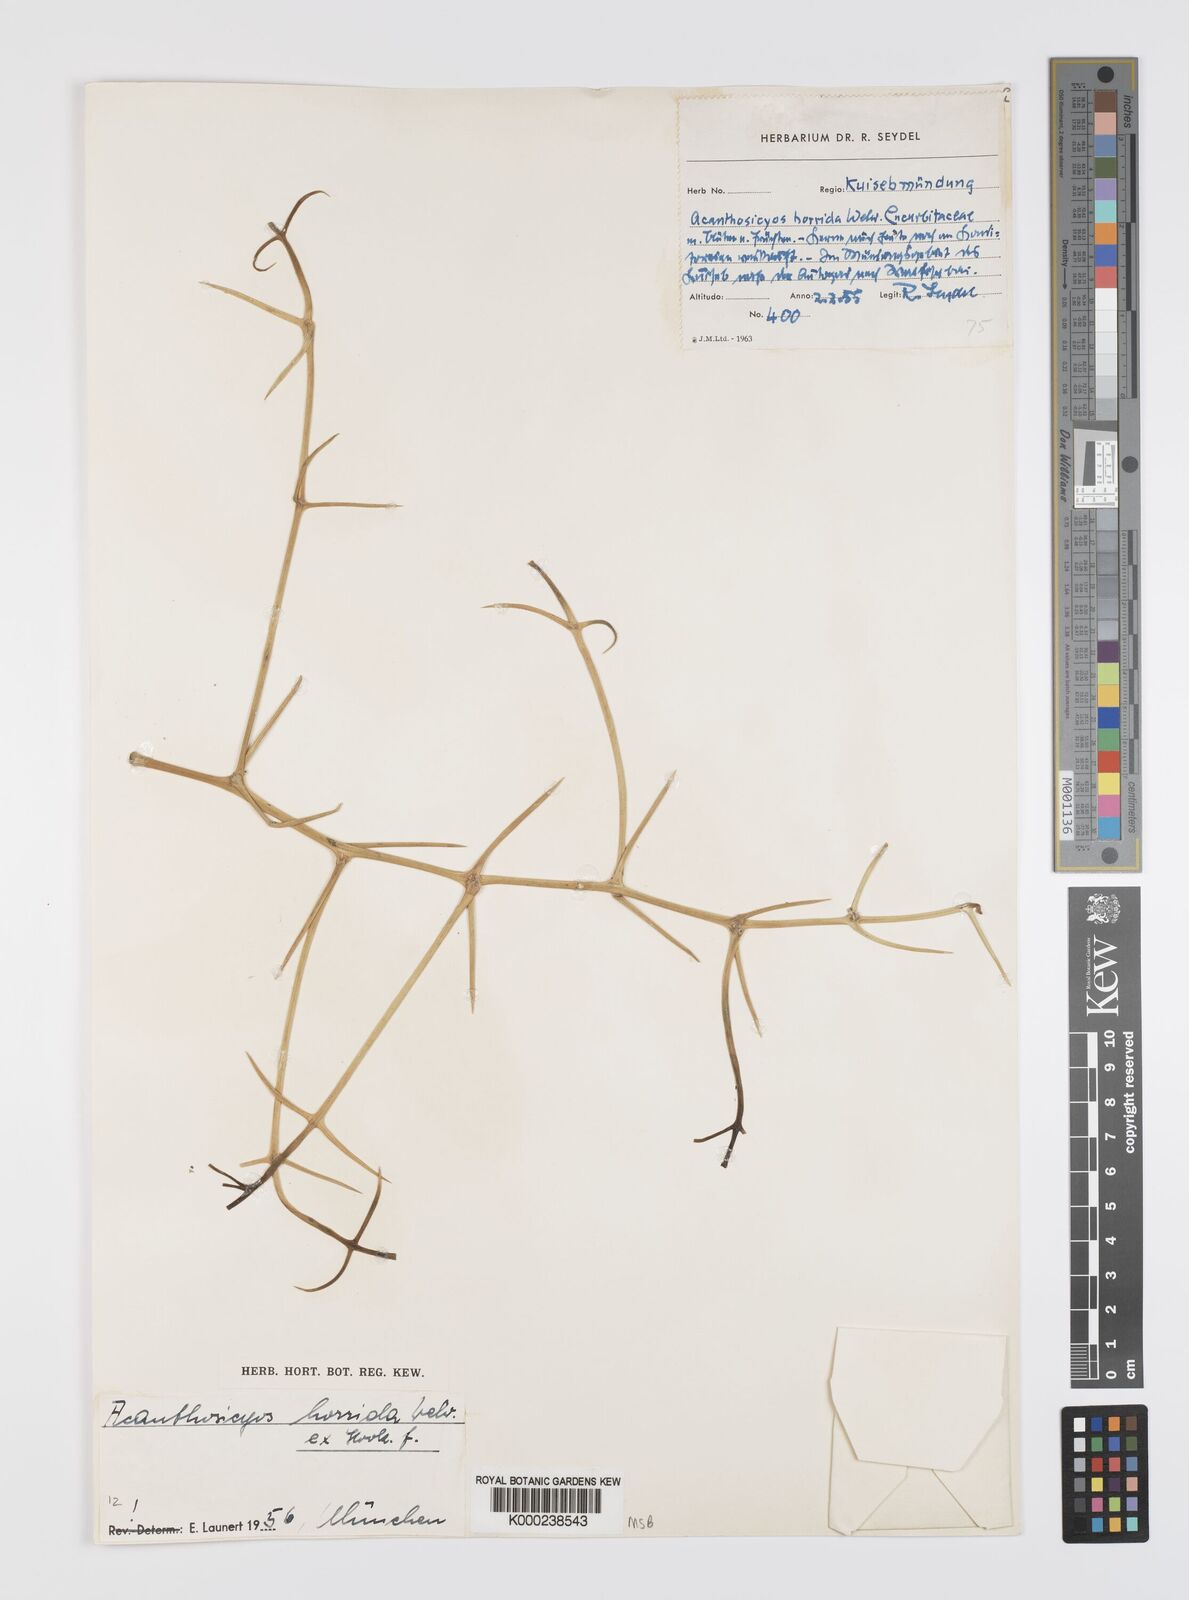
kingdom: Plantae
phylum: Tracheophyta
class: Magnoliopsida
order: Cucurbitales
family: Cucurbitaceae
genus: Acanthosicyos
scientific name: Acanthosicyos horridus
